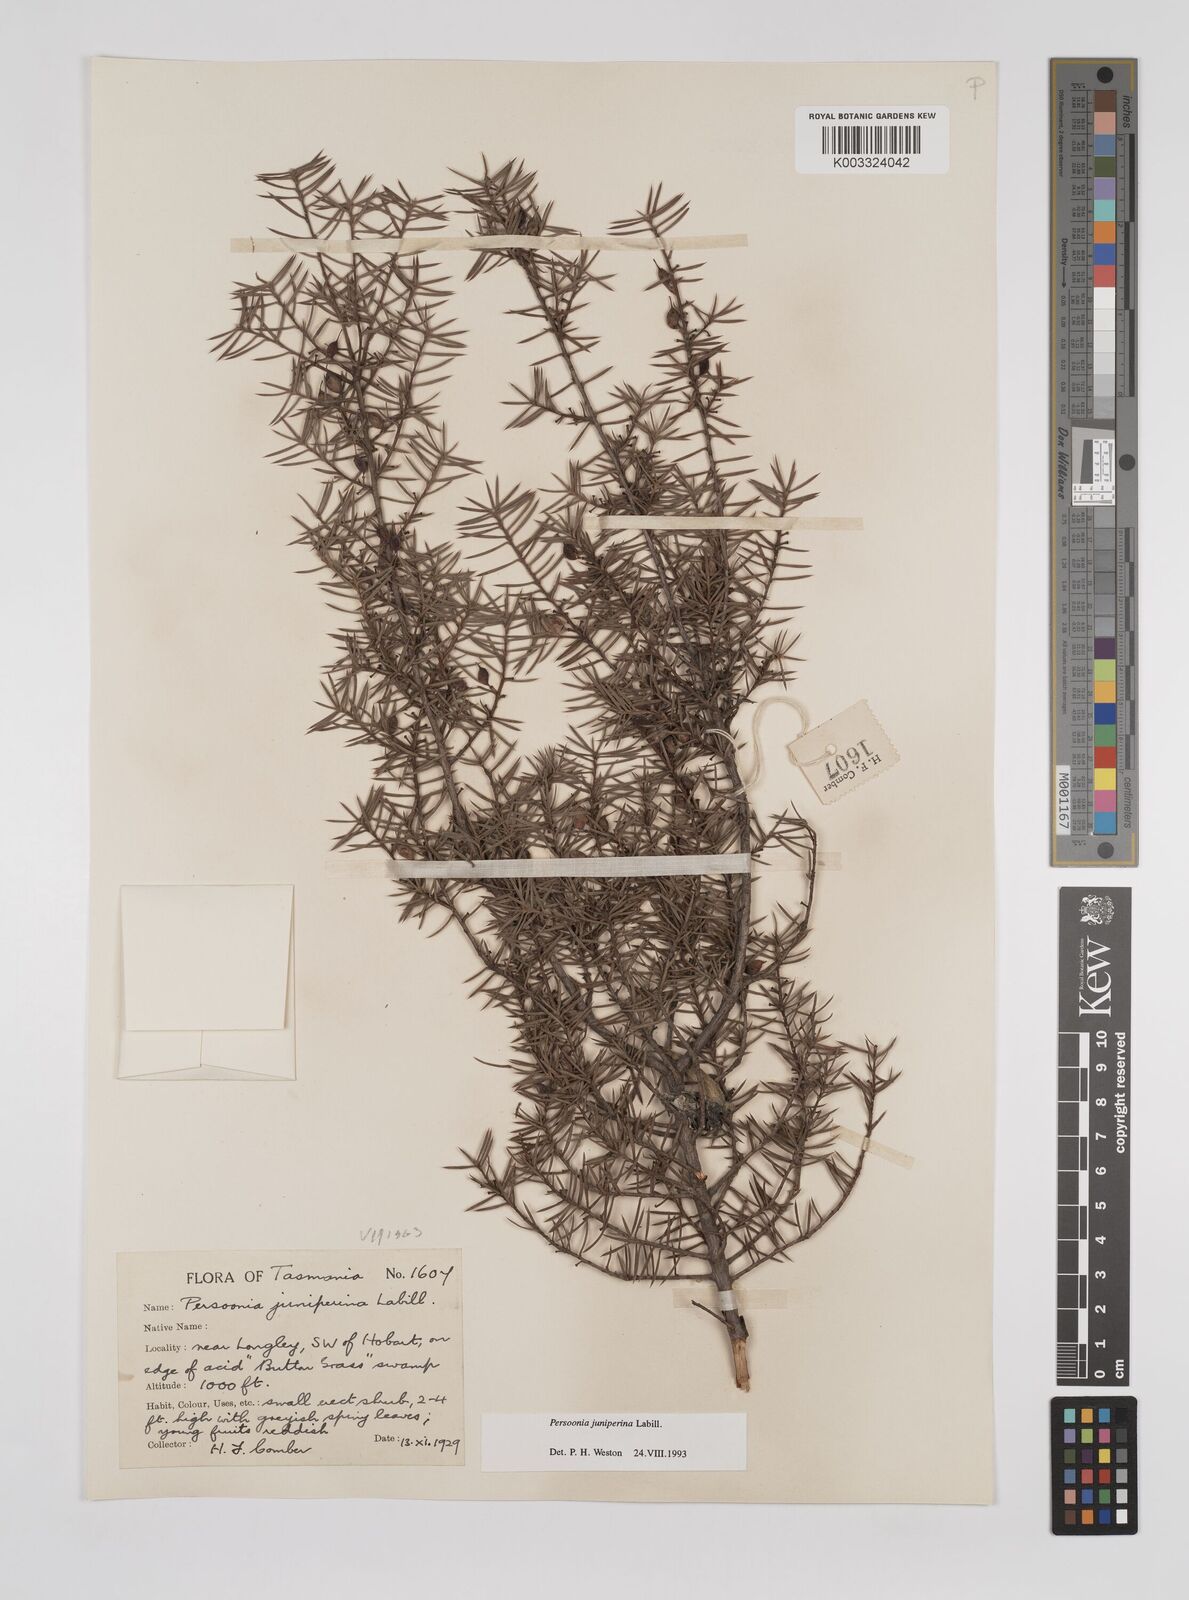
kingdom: Plantae
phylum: Tracheophyta
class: Magnoliopsida
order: Proteales
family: Proteaceae
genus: Persoonia
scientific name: Persoonia juniperina
